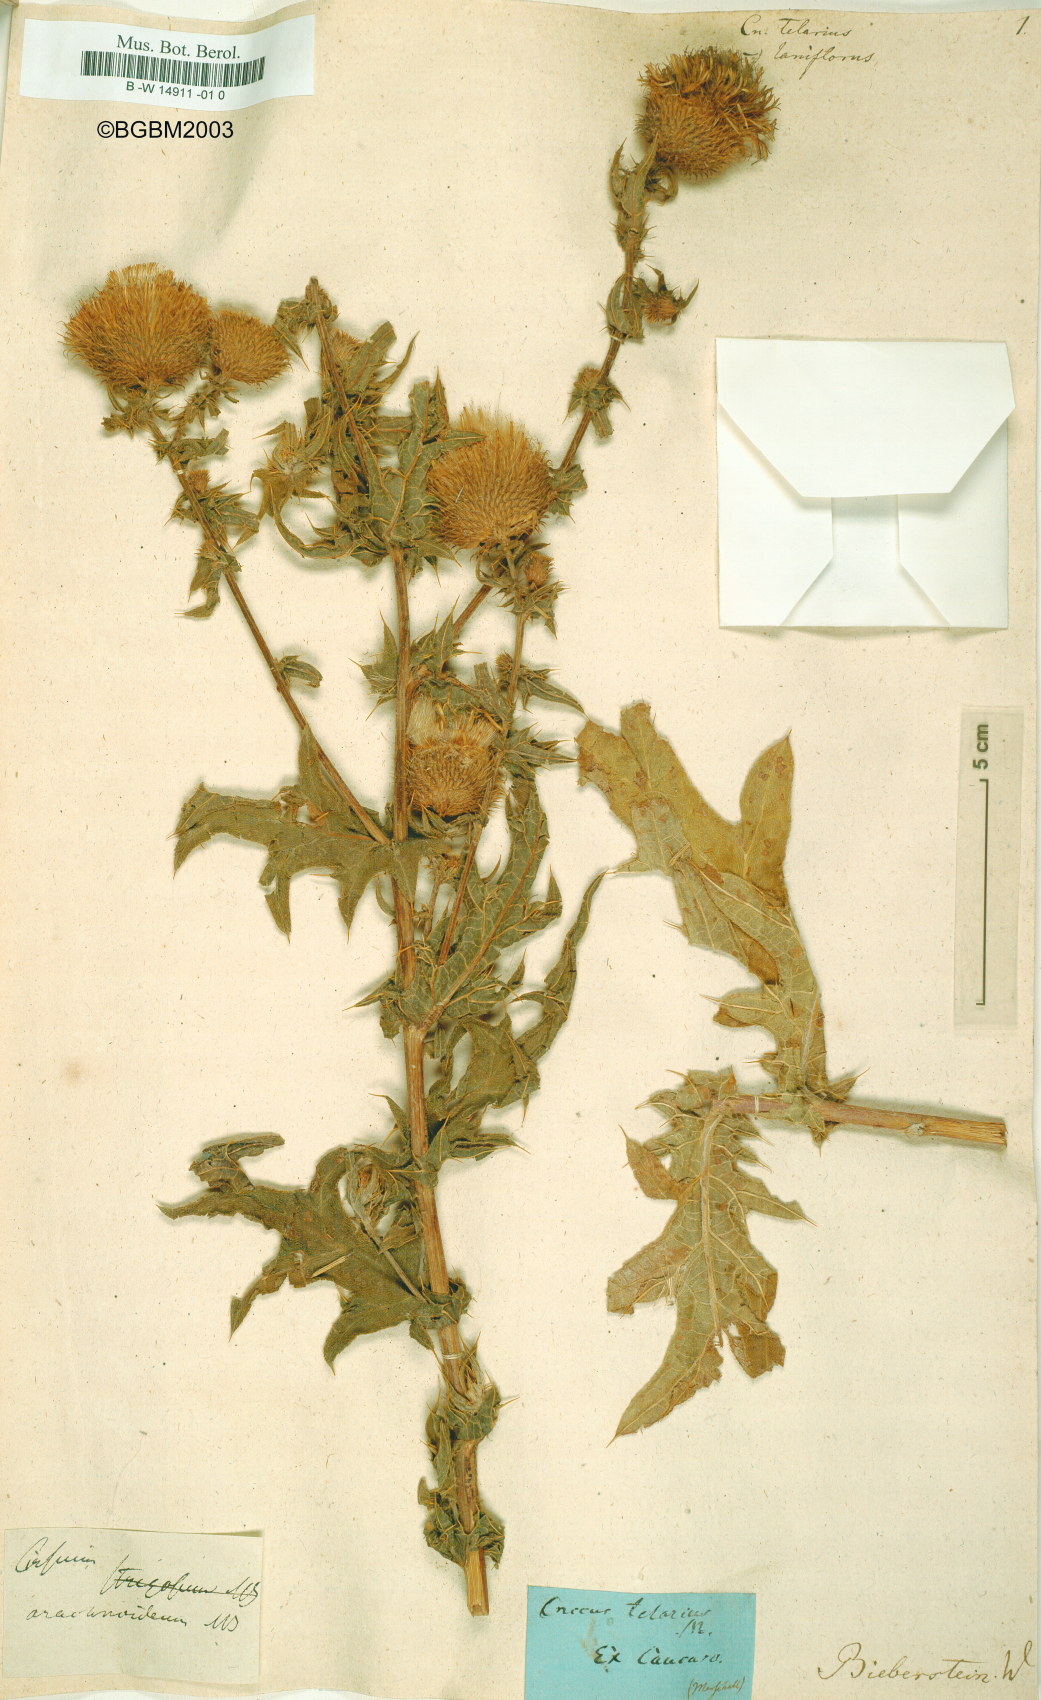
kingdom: Plantae
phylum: Tracheophyta
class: Magnoliopsida
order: Asterales
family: Asteraceae
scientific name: Asteraceae
